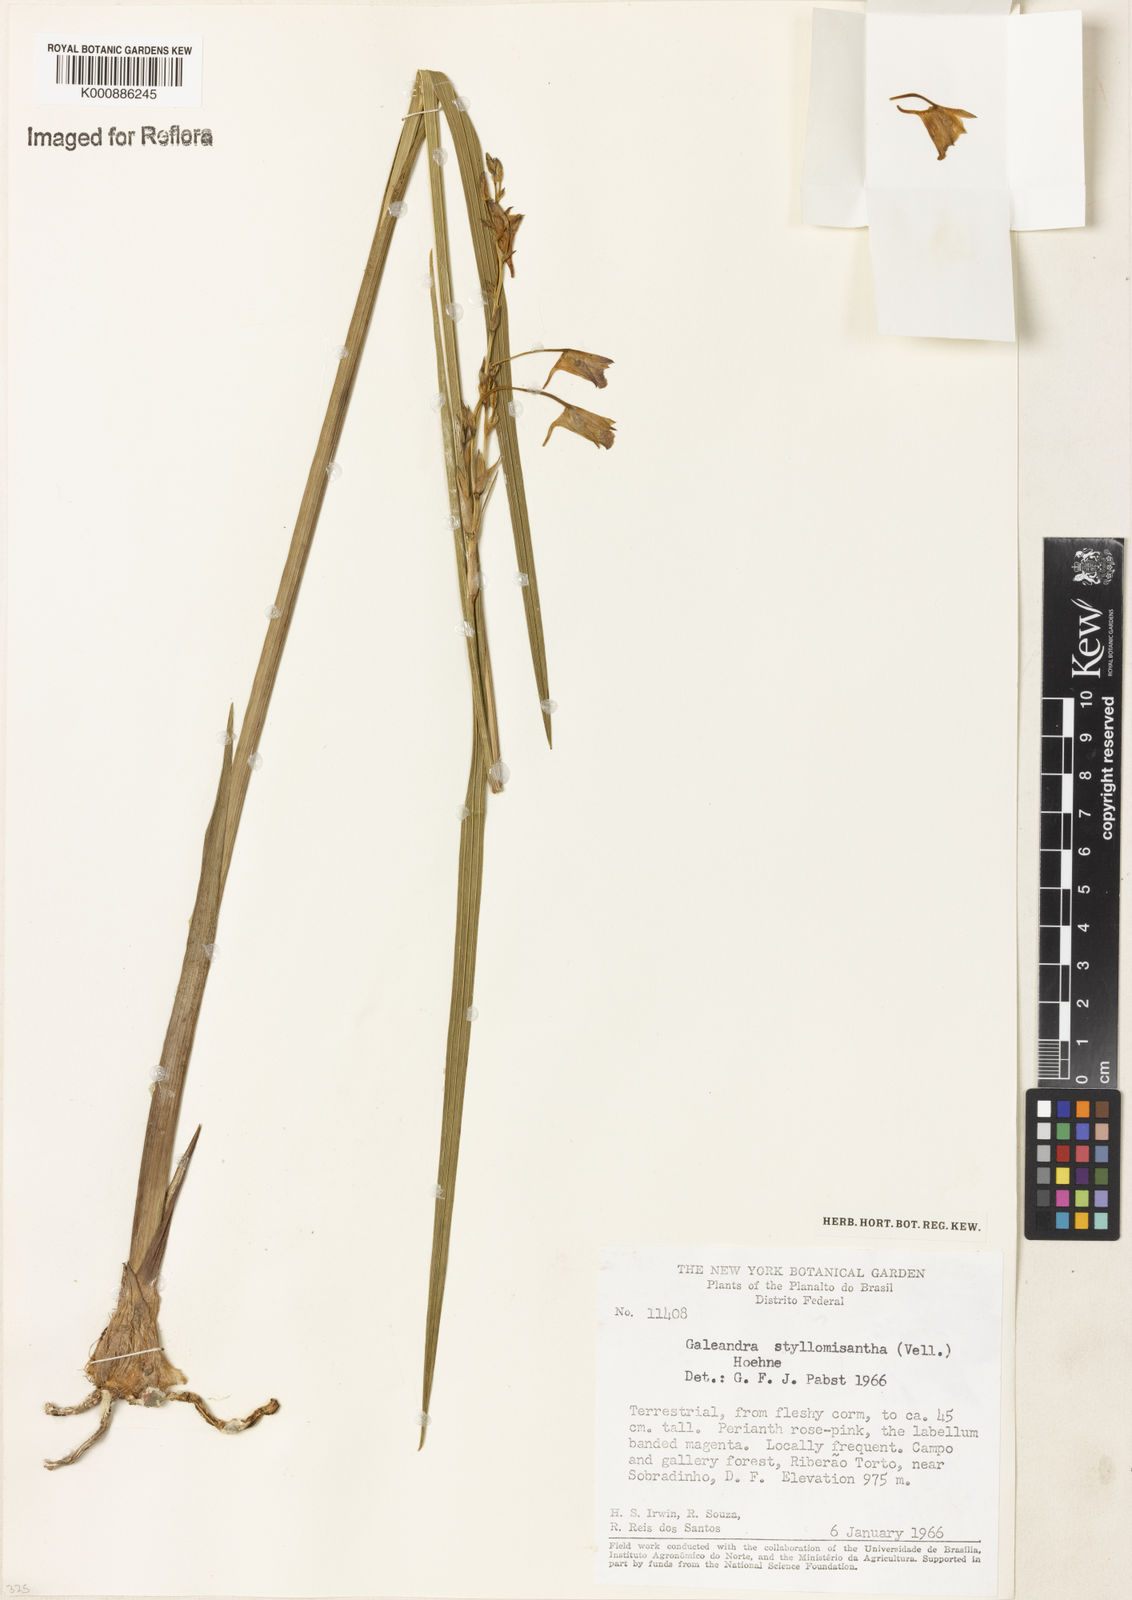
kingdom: Plantae
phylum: Tracheophyta
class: Liliopsida
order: Asparagales
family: Orchidaceae
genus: Galeandra
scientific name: Galeandra styllomisantha
